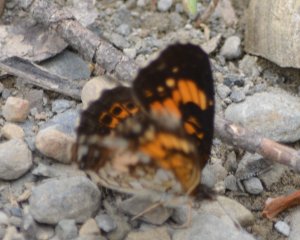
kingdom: Animalia
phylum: Arthropoda
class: Insecta
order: Lepidoptera
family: Nymphalidae
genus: Chlosyne
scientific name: Chlosyne nycteis
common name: Silvery Checkerspot
